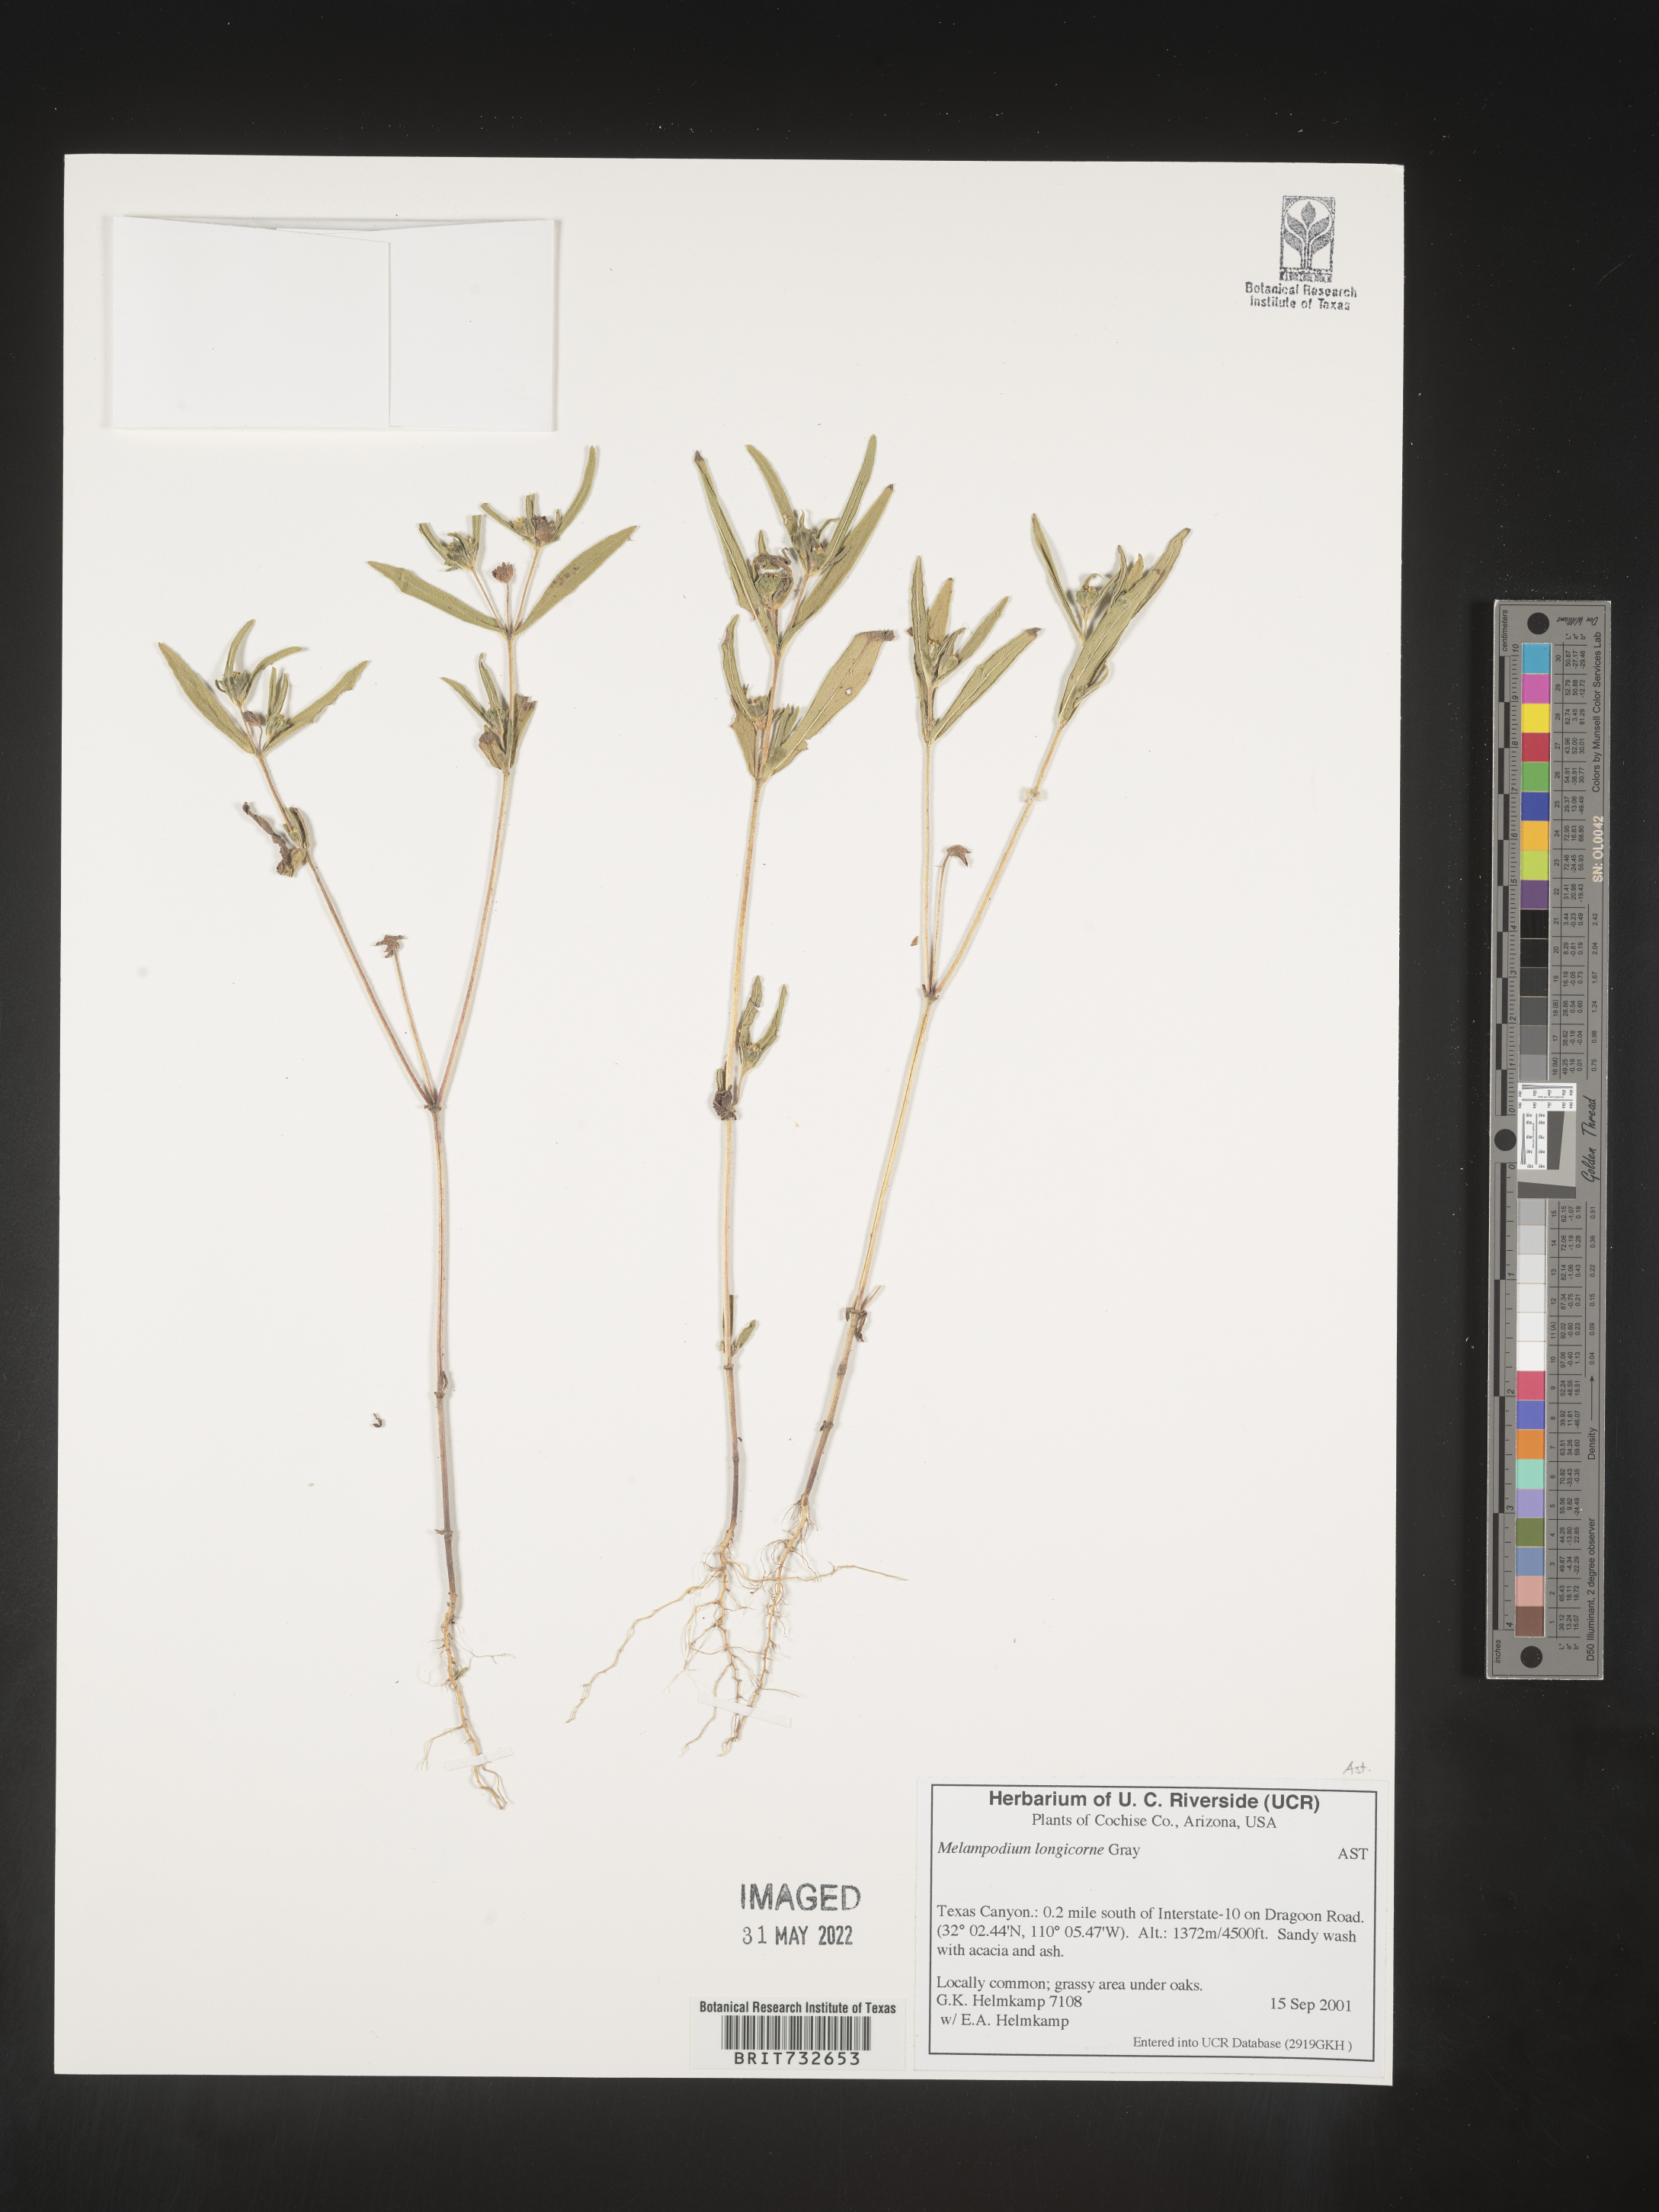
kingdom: Plantae
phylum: Tracheophyta
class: Magnoliopsida
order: Asterales
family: Asteraceae
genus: Melampodium
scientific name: Melampodium
